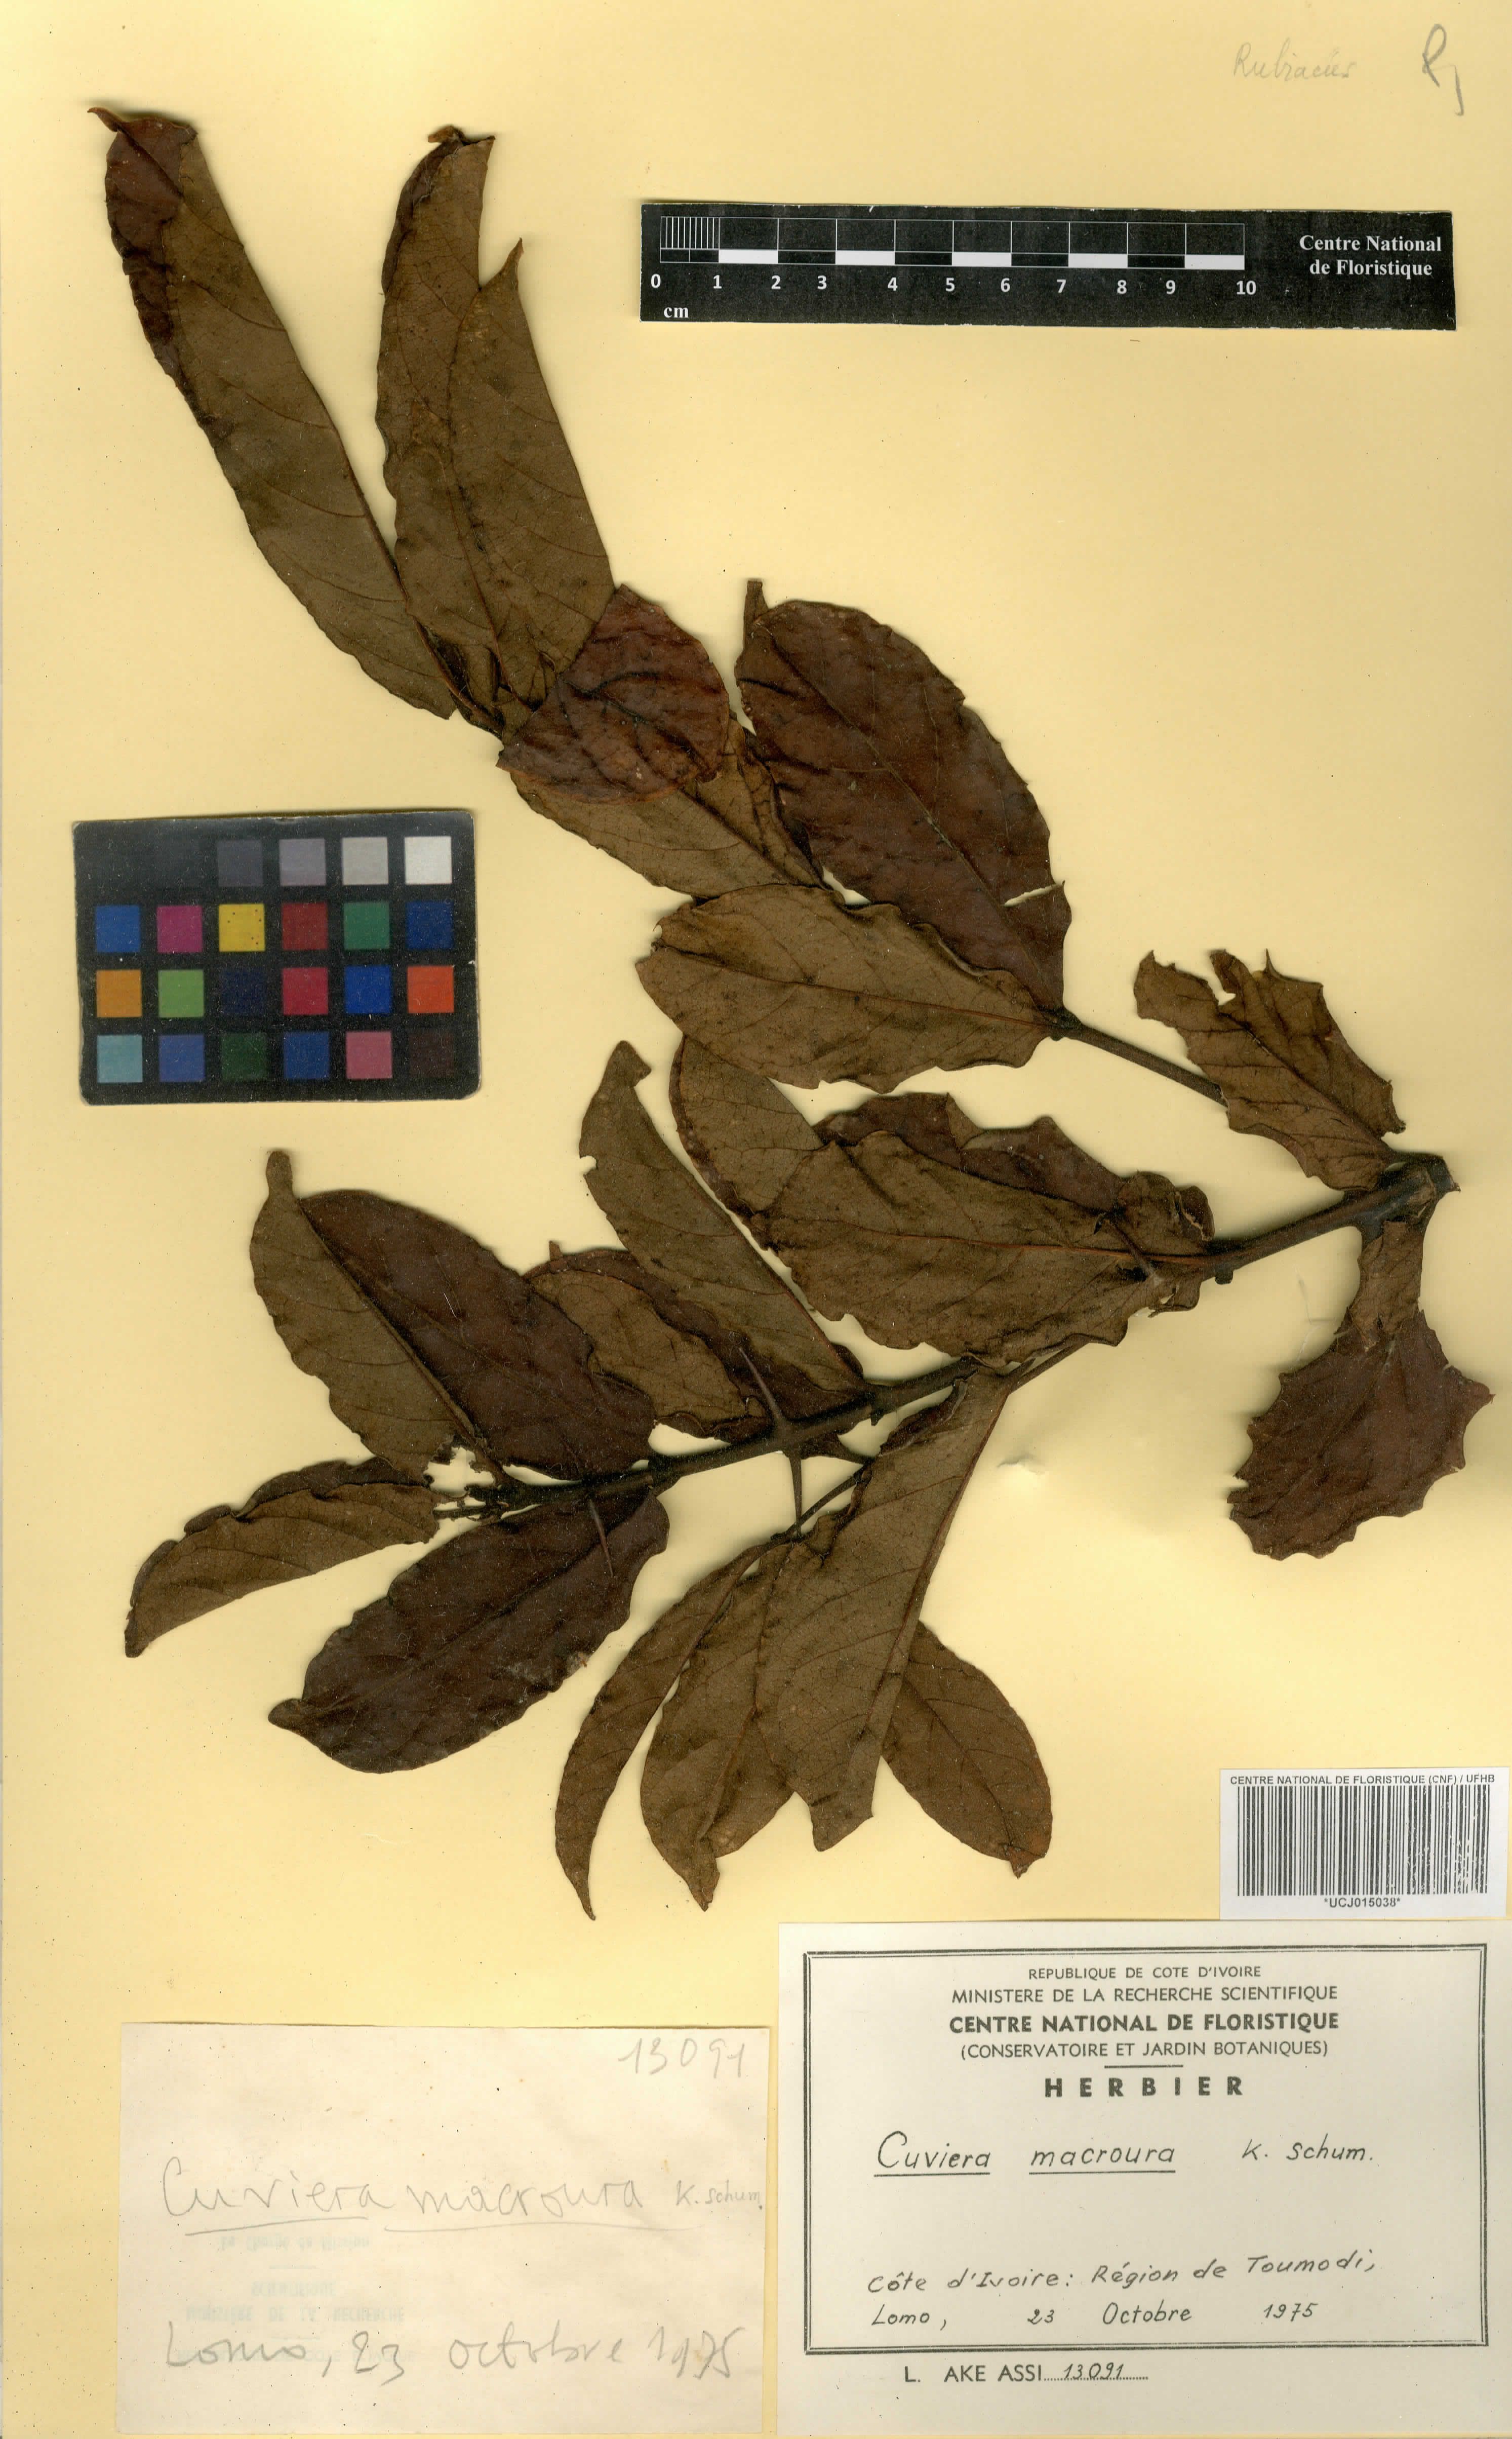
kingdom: Plantae
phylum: Tracheophyta
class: Magnoliopsida
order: Gentianales
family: Rubiaceae
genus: Cuviera
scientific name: Cuviera macroura
